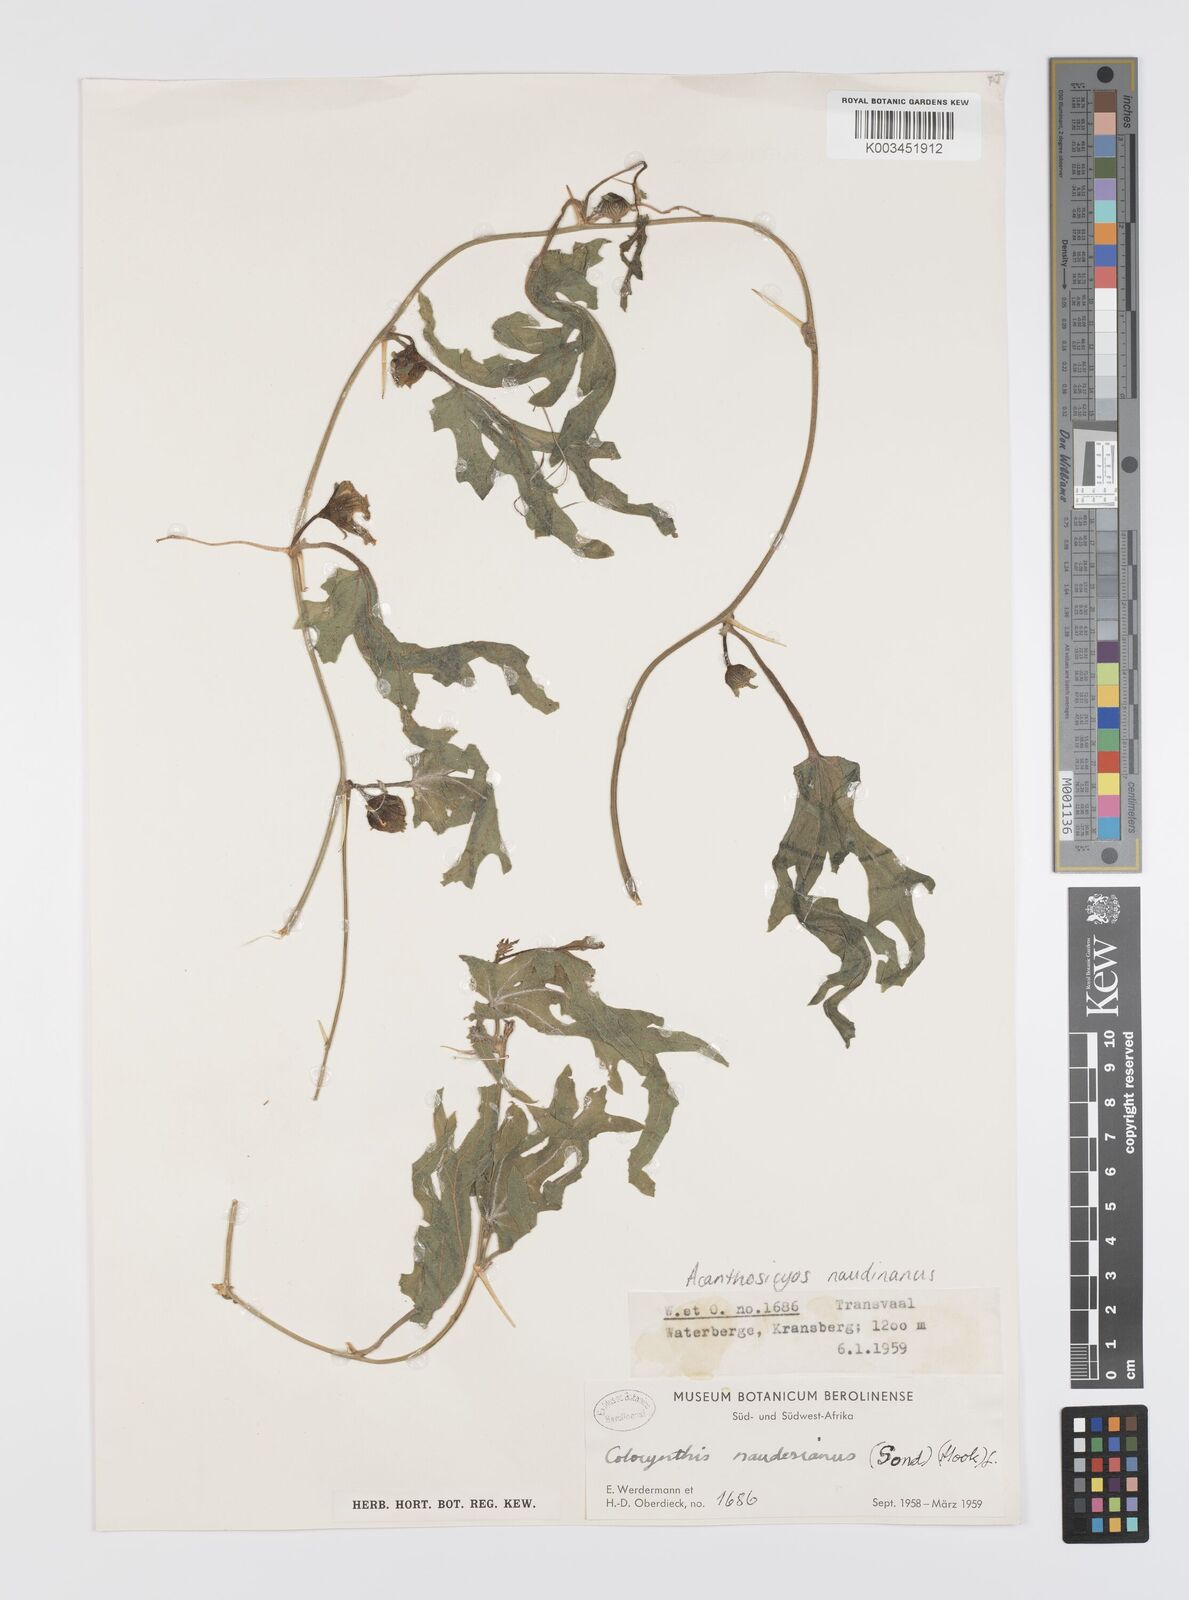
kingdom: Plantae
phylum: Tracheophyta
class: Magnoliopsida
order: Cucurbitales
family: Cucurbitaceae
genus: Citrullus
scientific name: Citrullus naudinianus
